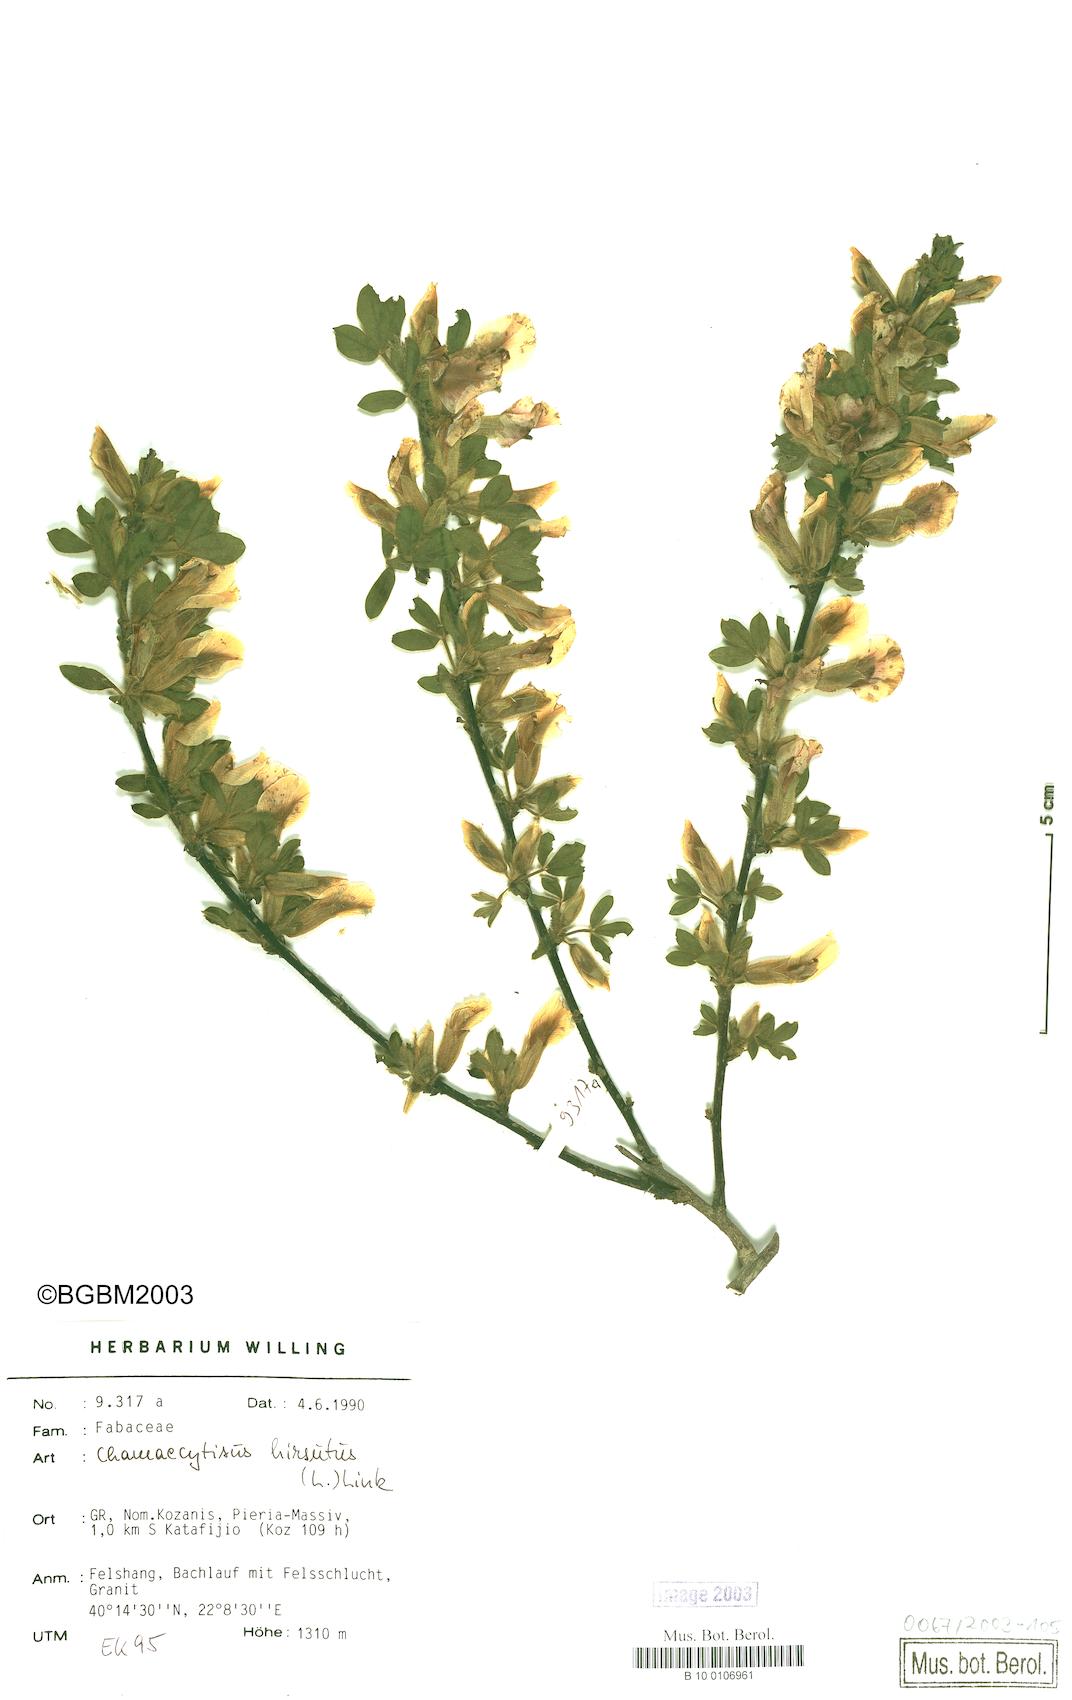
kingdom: Plantae
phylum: Tracheophyta
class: Magnoliopsida
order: Fabales
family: Fabaceae
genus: Chamaecytisus
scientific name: Chamaecytisus hirsutus
